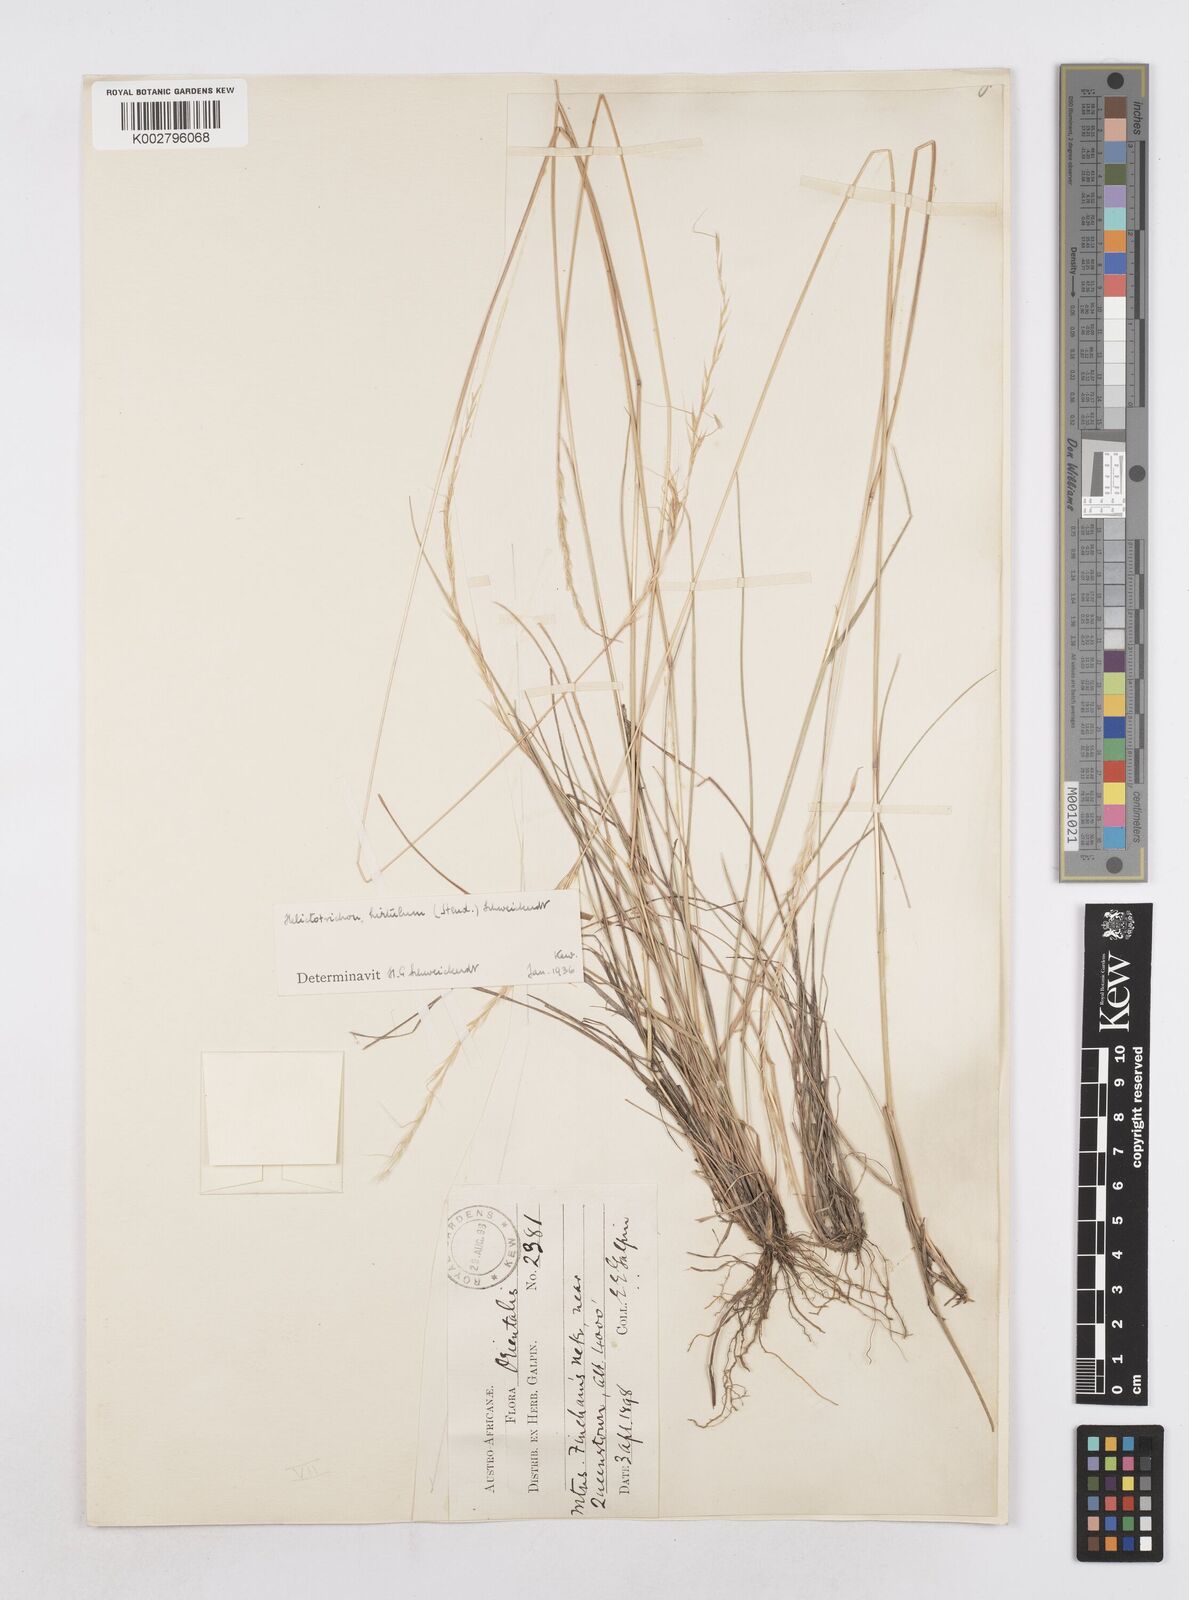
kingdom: Plantae
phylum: Tracheophyta
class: Liliopsida
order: Poales
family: Poaceae
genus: Trisetopsis
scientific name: Trisetopsis hirtula
